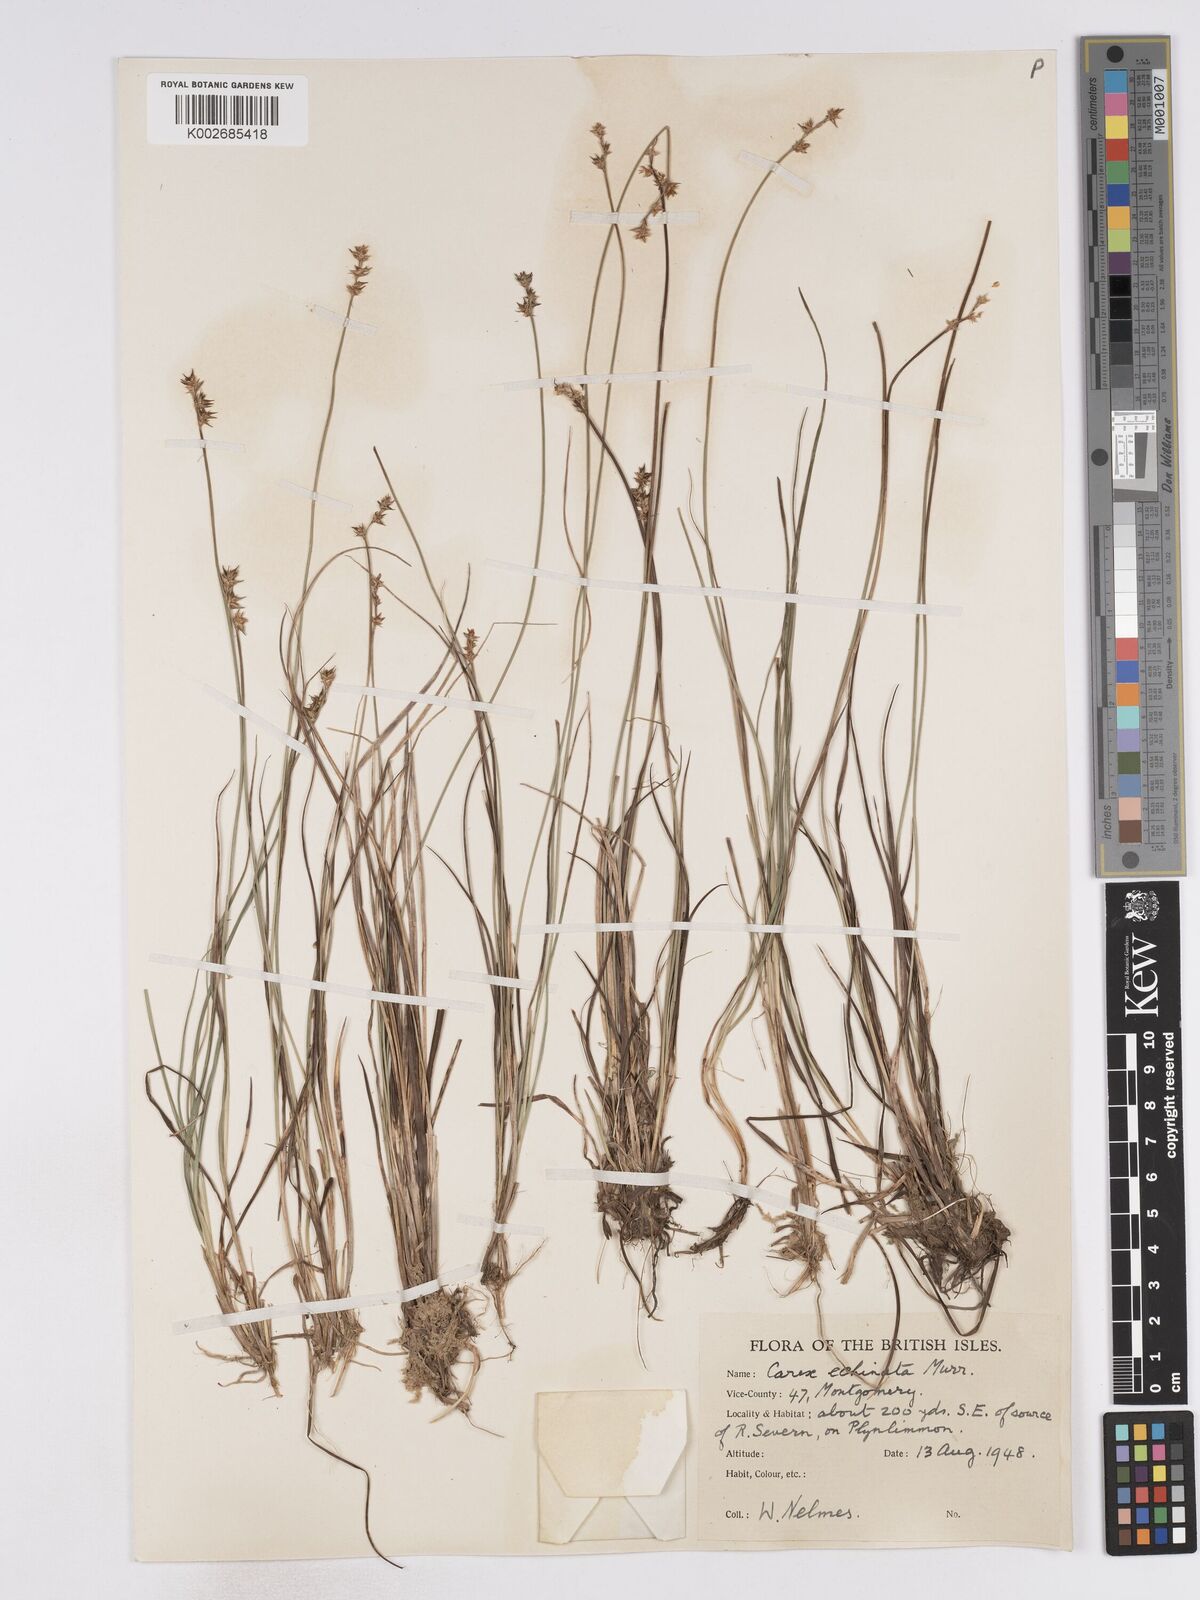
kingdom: Plantae
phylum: Tracheophyta
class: Liliopsida
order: Poales
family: Cyperaceae
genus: Carex
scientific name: Carex hispida
